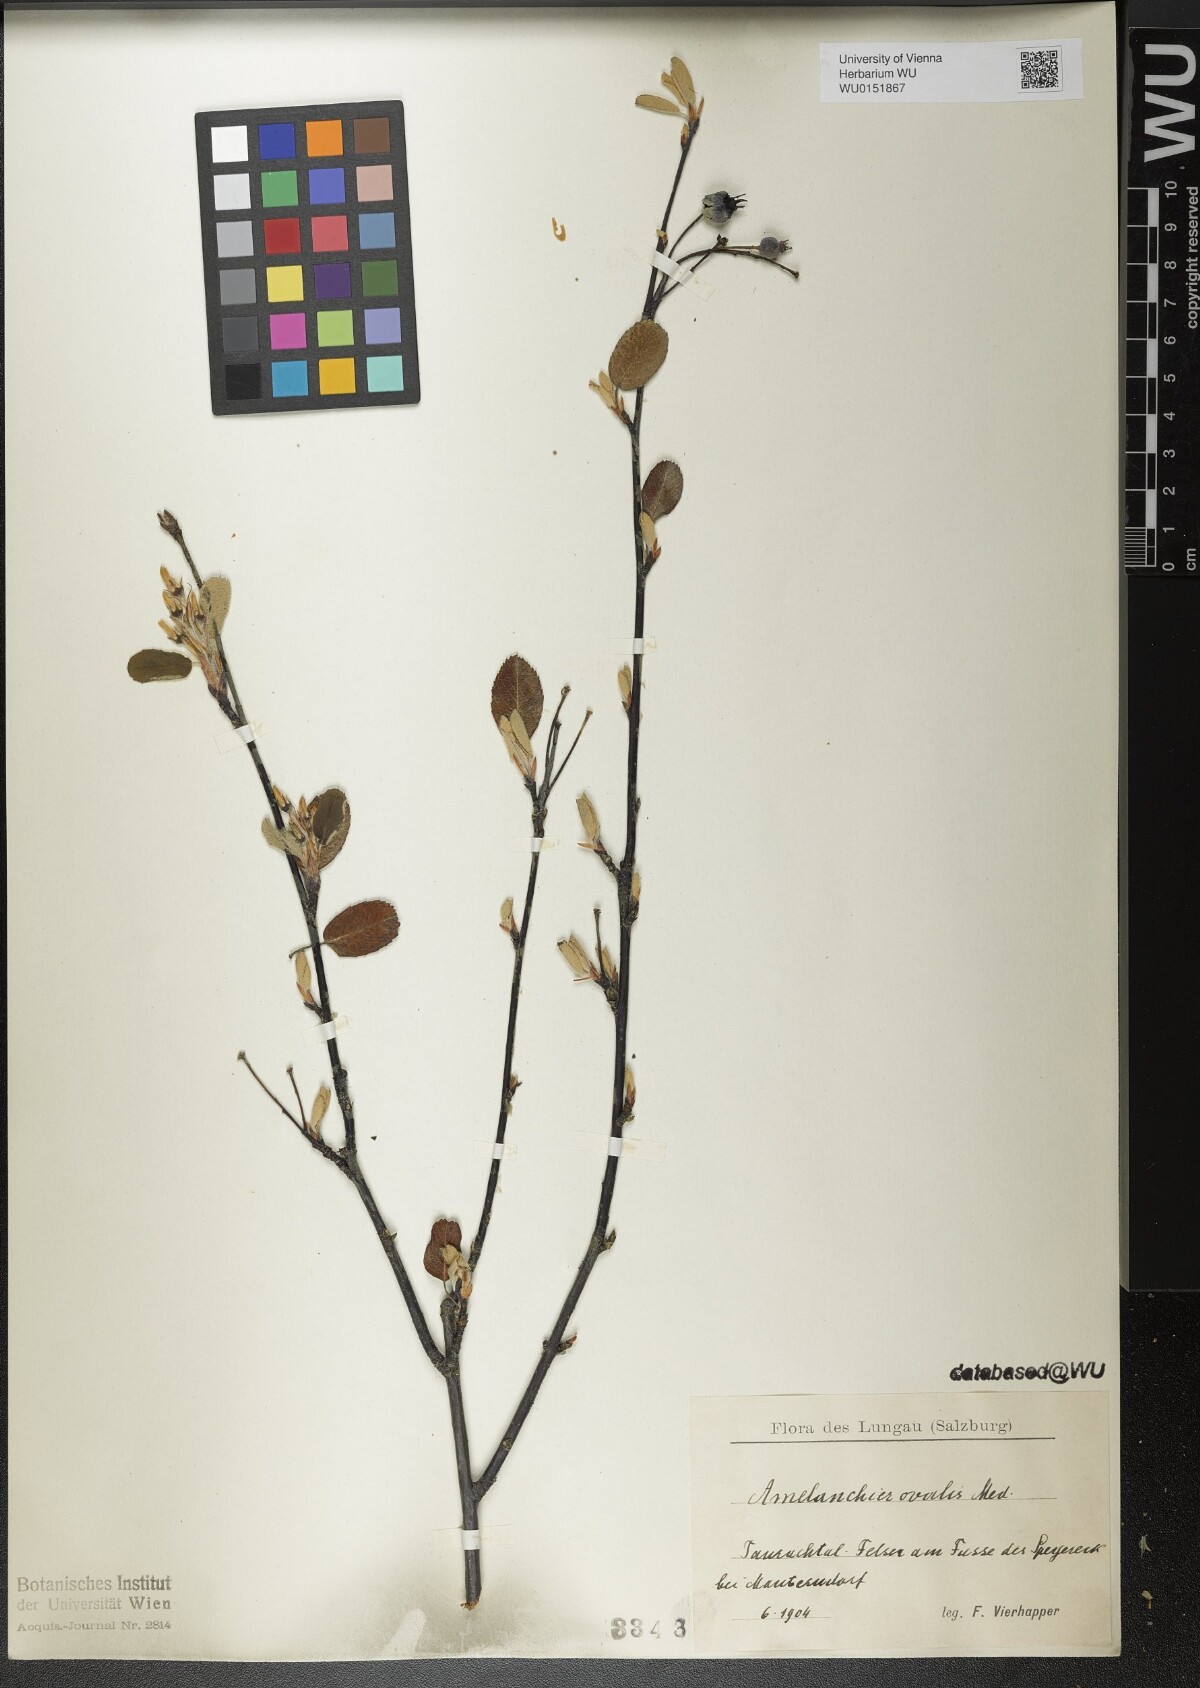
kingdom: Plantae
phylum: Tracheophyta
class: Magnoliopsida
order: Rosales
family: Rosaceae
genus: Amelanchier
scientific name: Amelanchier ovalis
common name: Serviceberry
